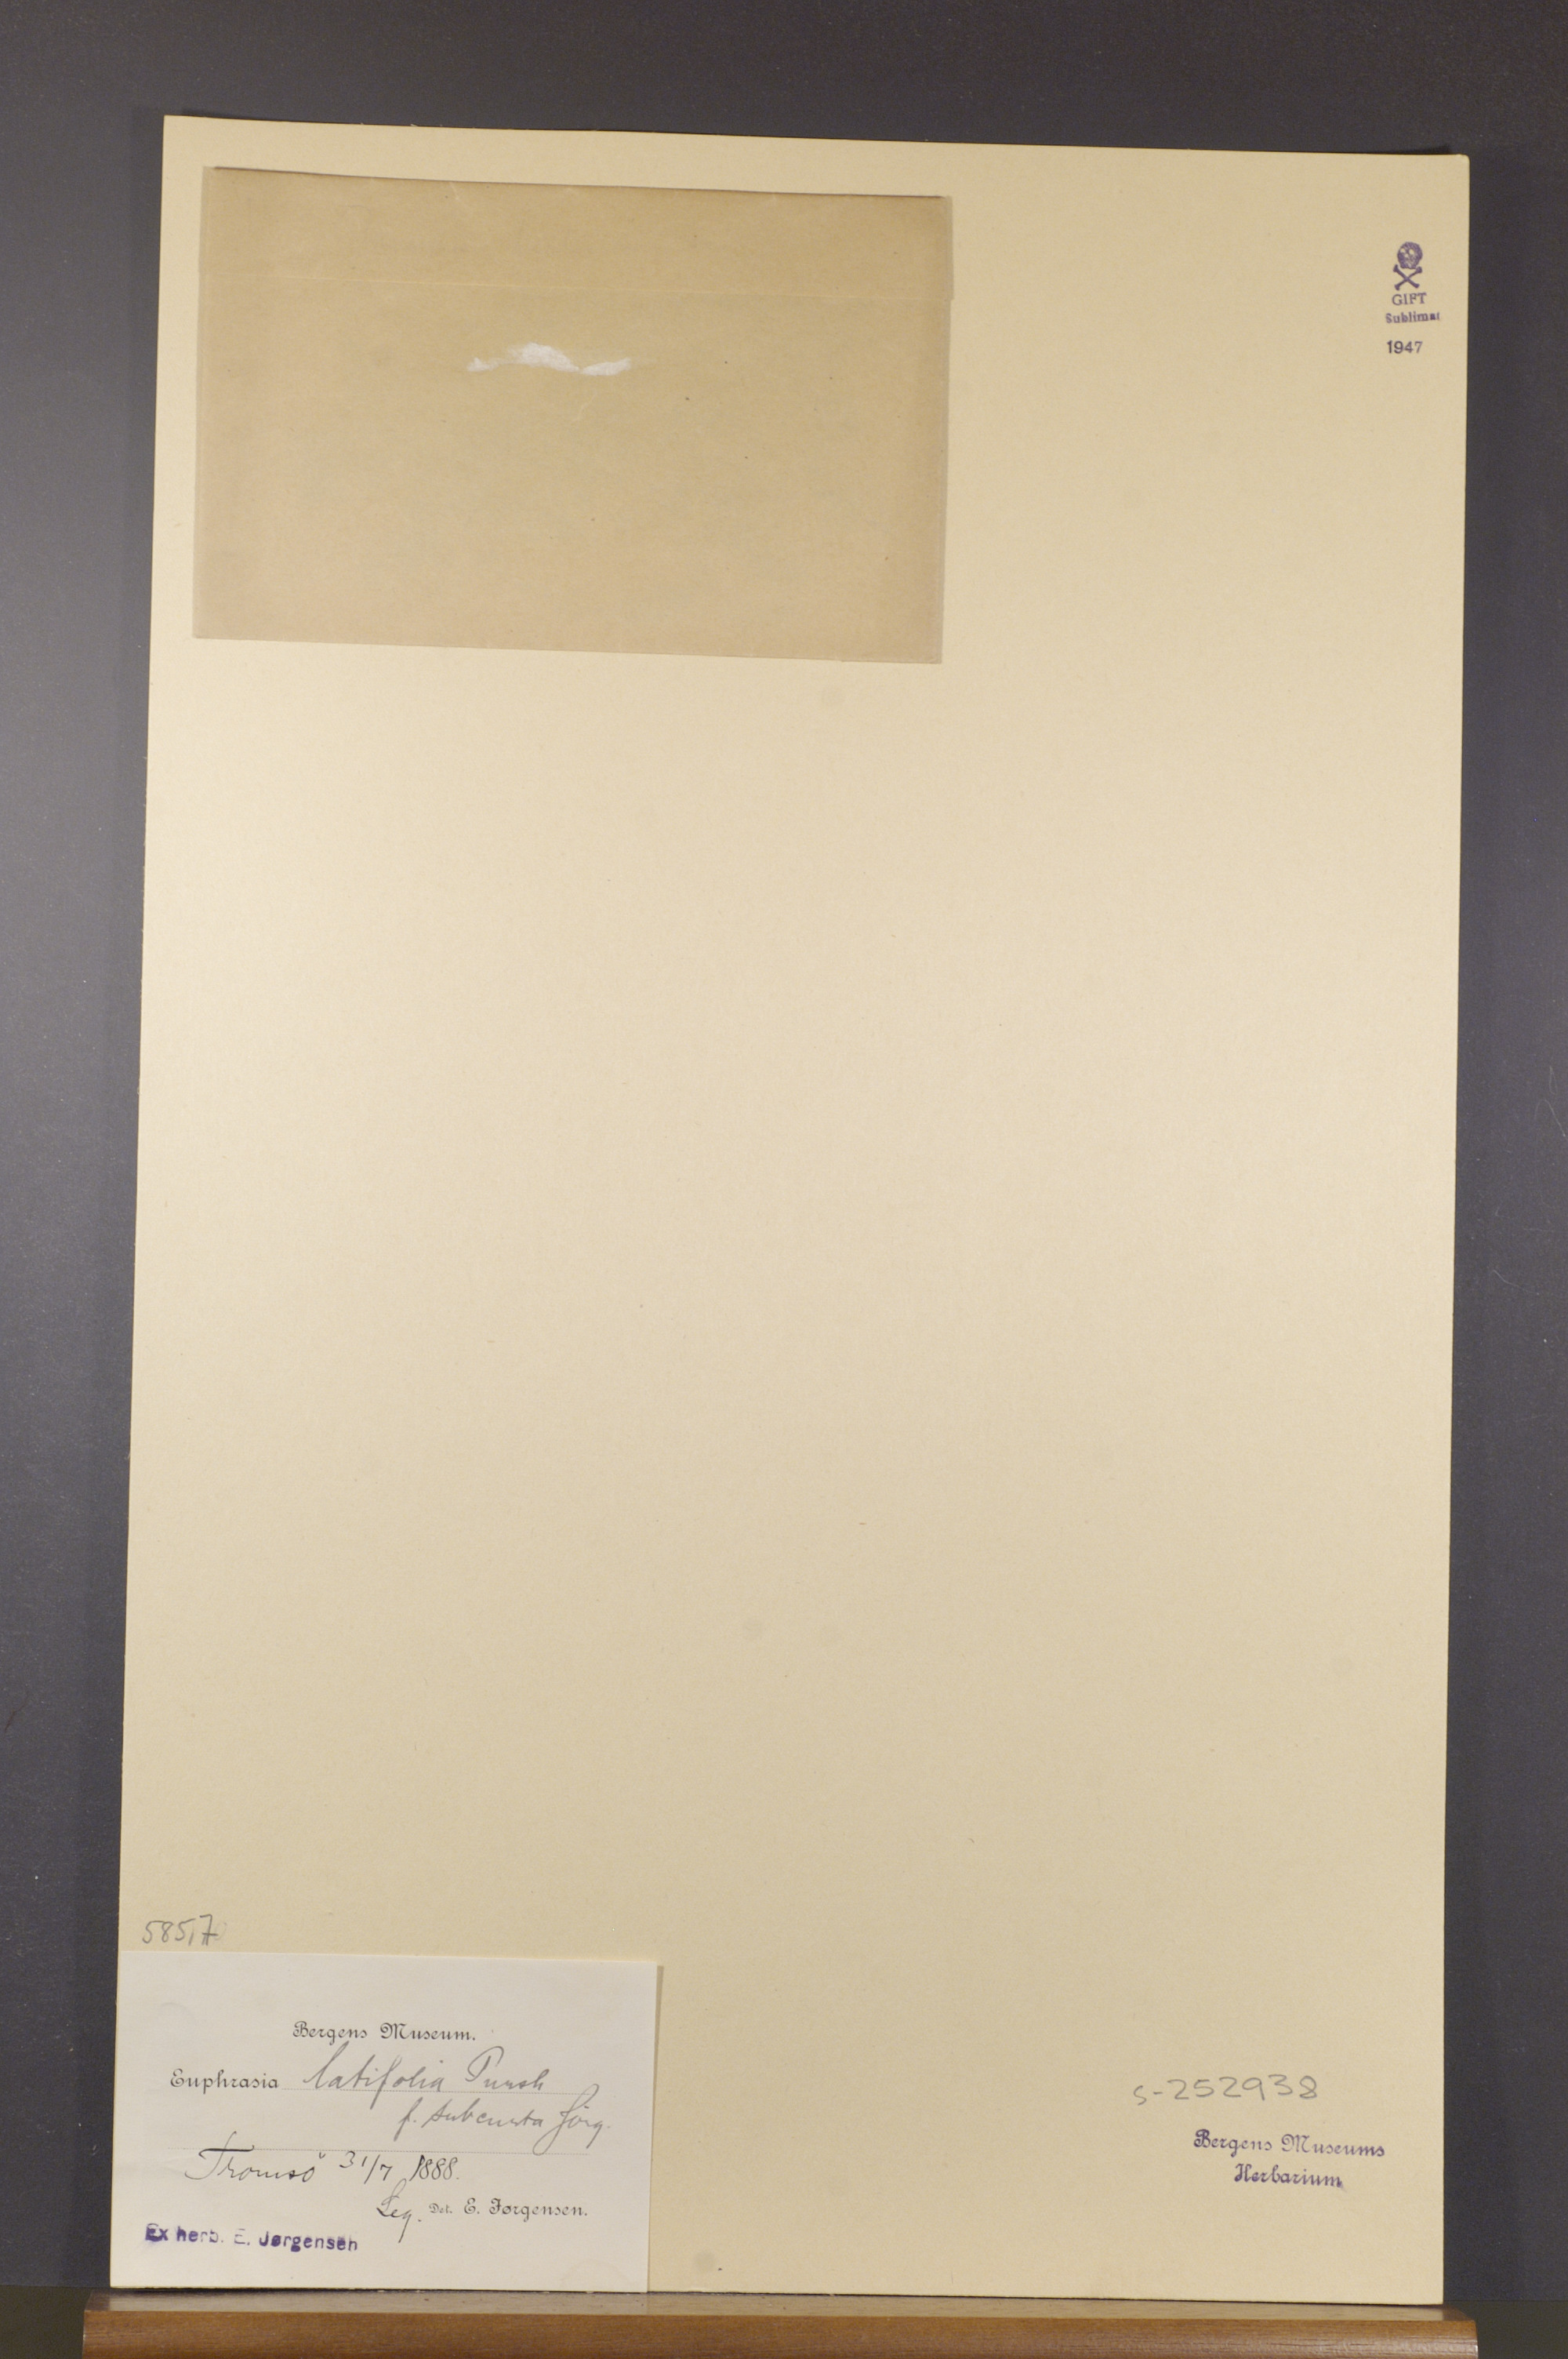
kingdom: Plantae
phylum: Tracheophyta
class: Magnoliopsida
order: Lamiales
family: Orobanchaceae
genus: Euphrasia
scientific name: Euphrasia wettsteinii
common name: Wettstein's eyebright
